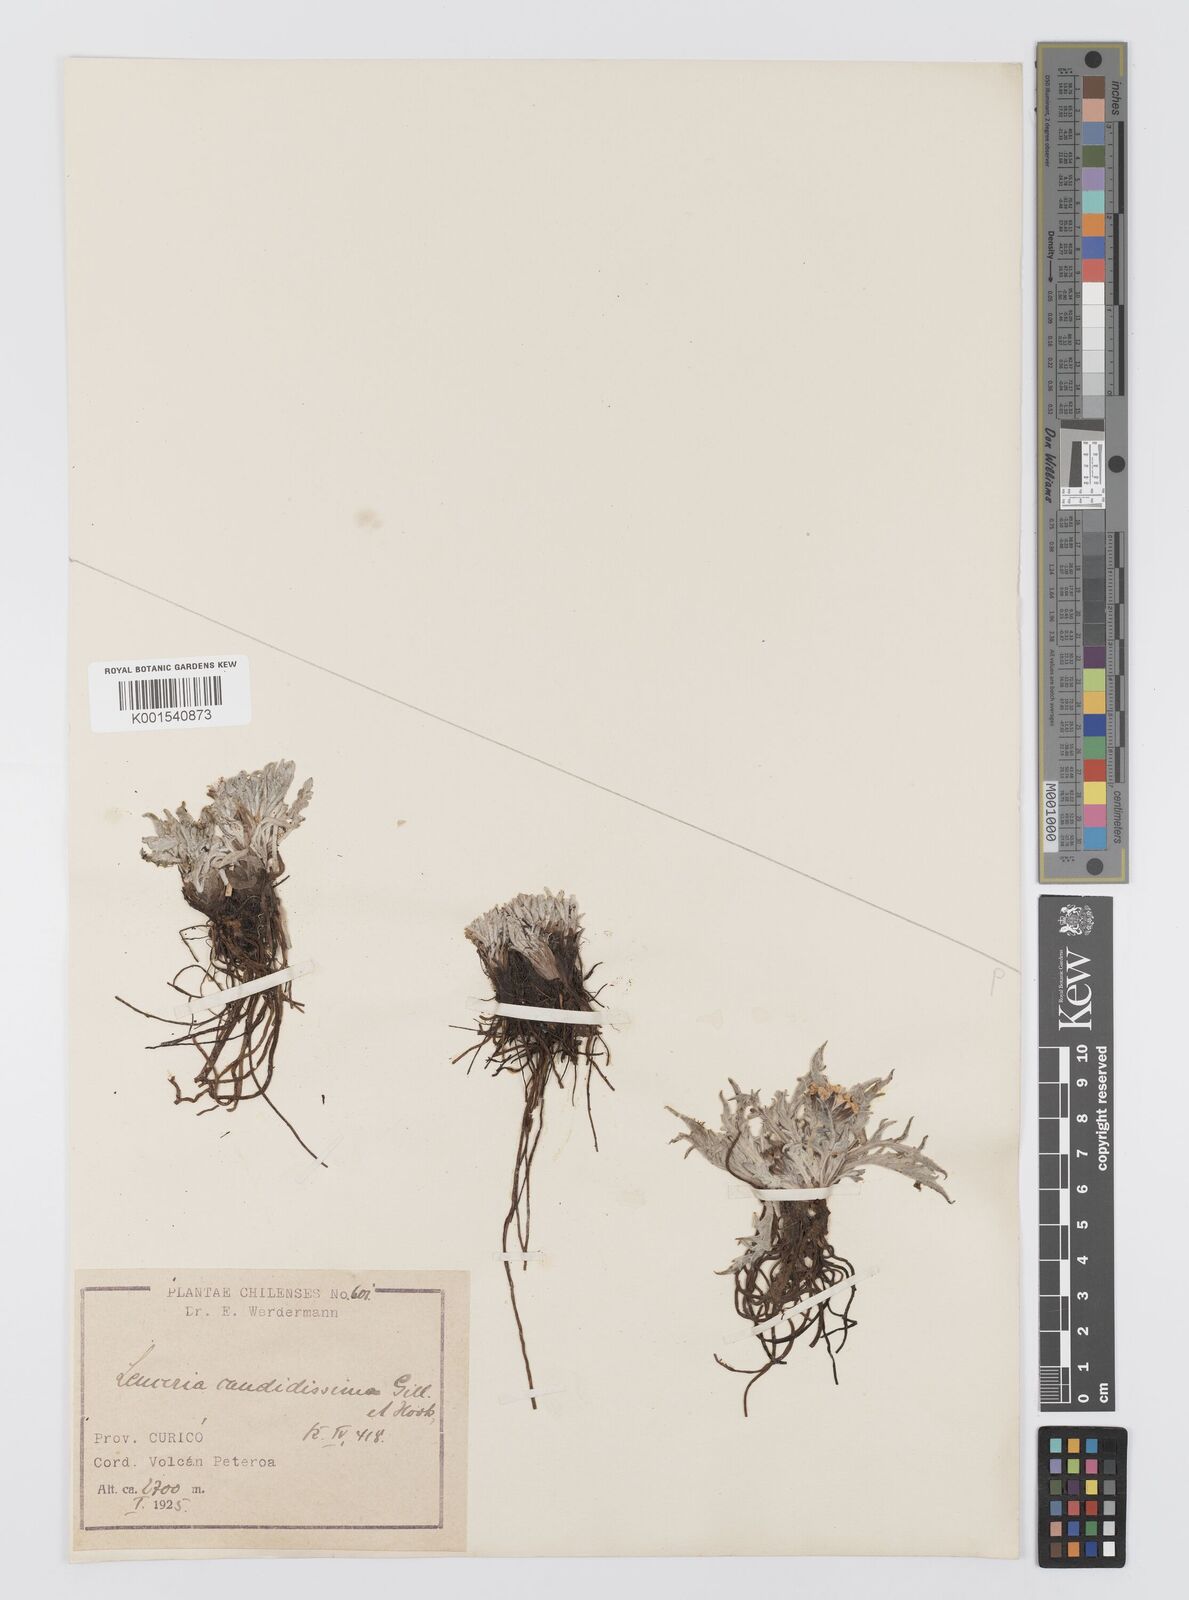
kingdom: Plantae
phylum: Tracheophyta
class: Magnoliopsida
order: Asterales
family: Asteraceae
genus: Leucheria
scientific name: Leucheria candidissima
